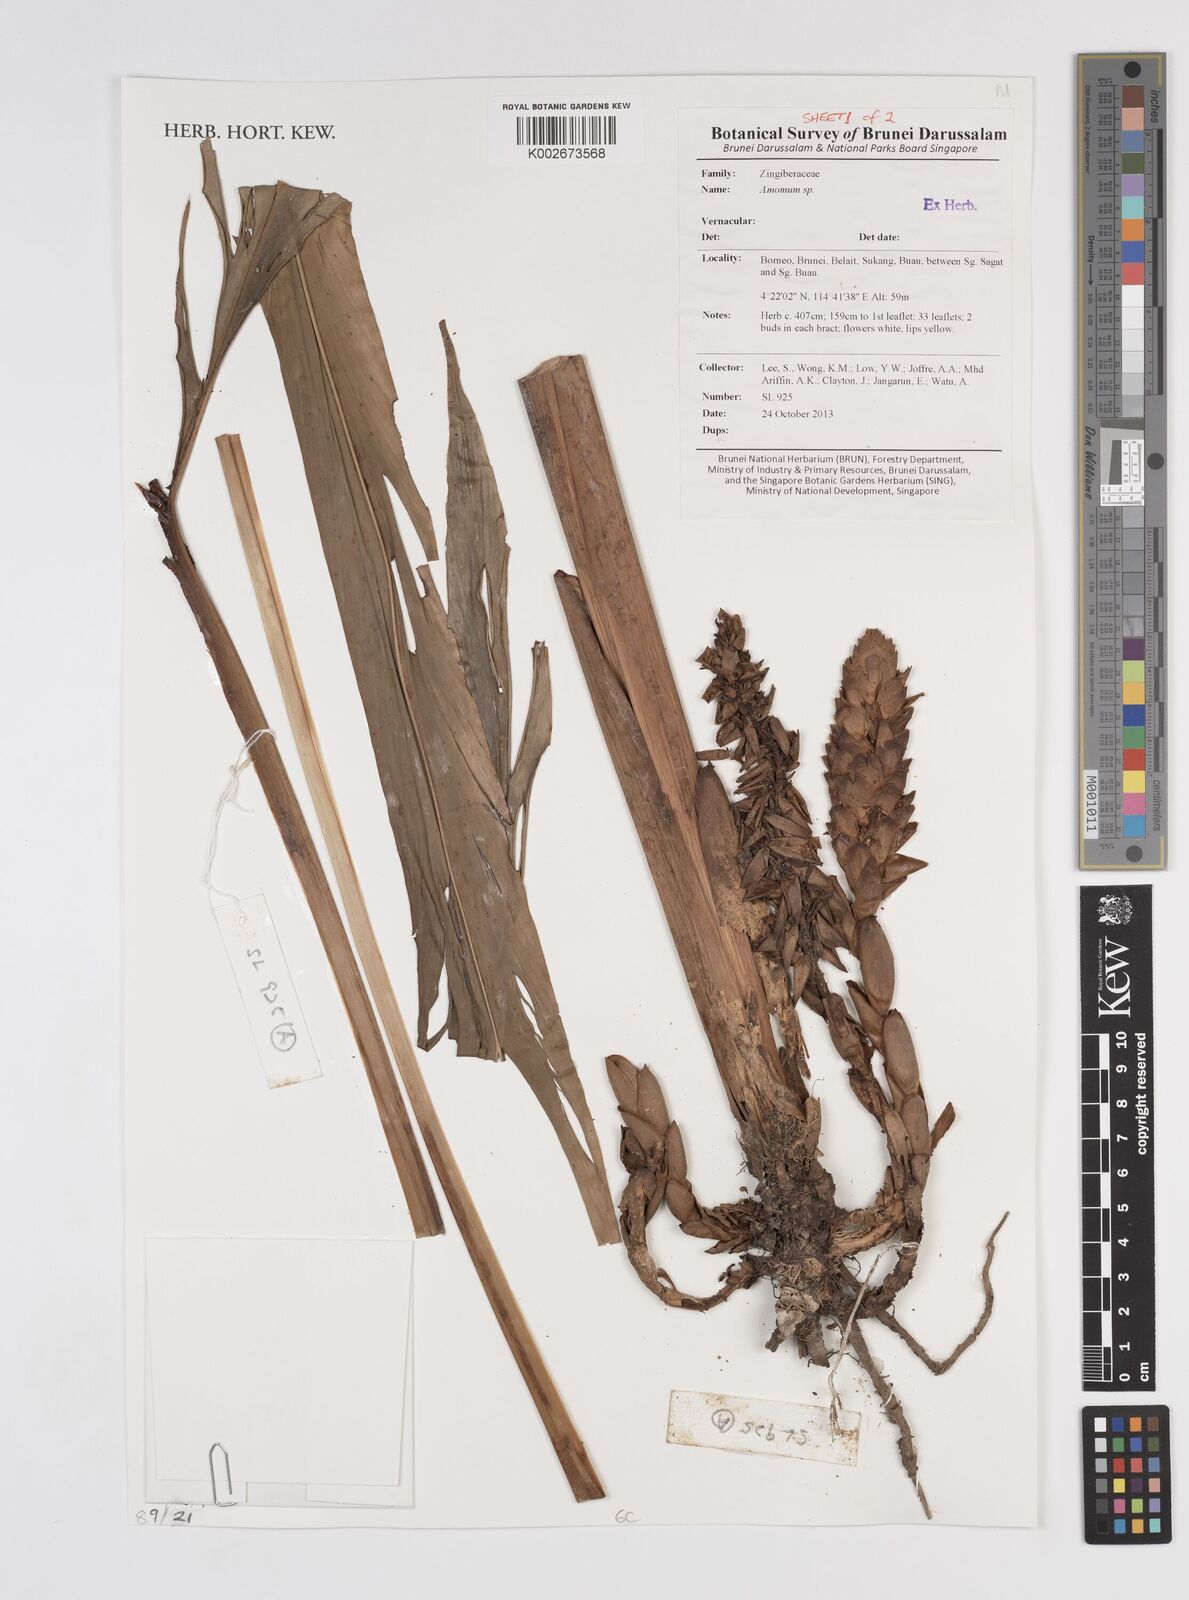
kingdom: Plantae
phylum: Tracheophyta
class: Liliopsida
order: Zingiberales
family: Zingiberaceae
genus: Amomum
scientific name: Amomum
